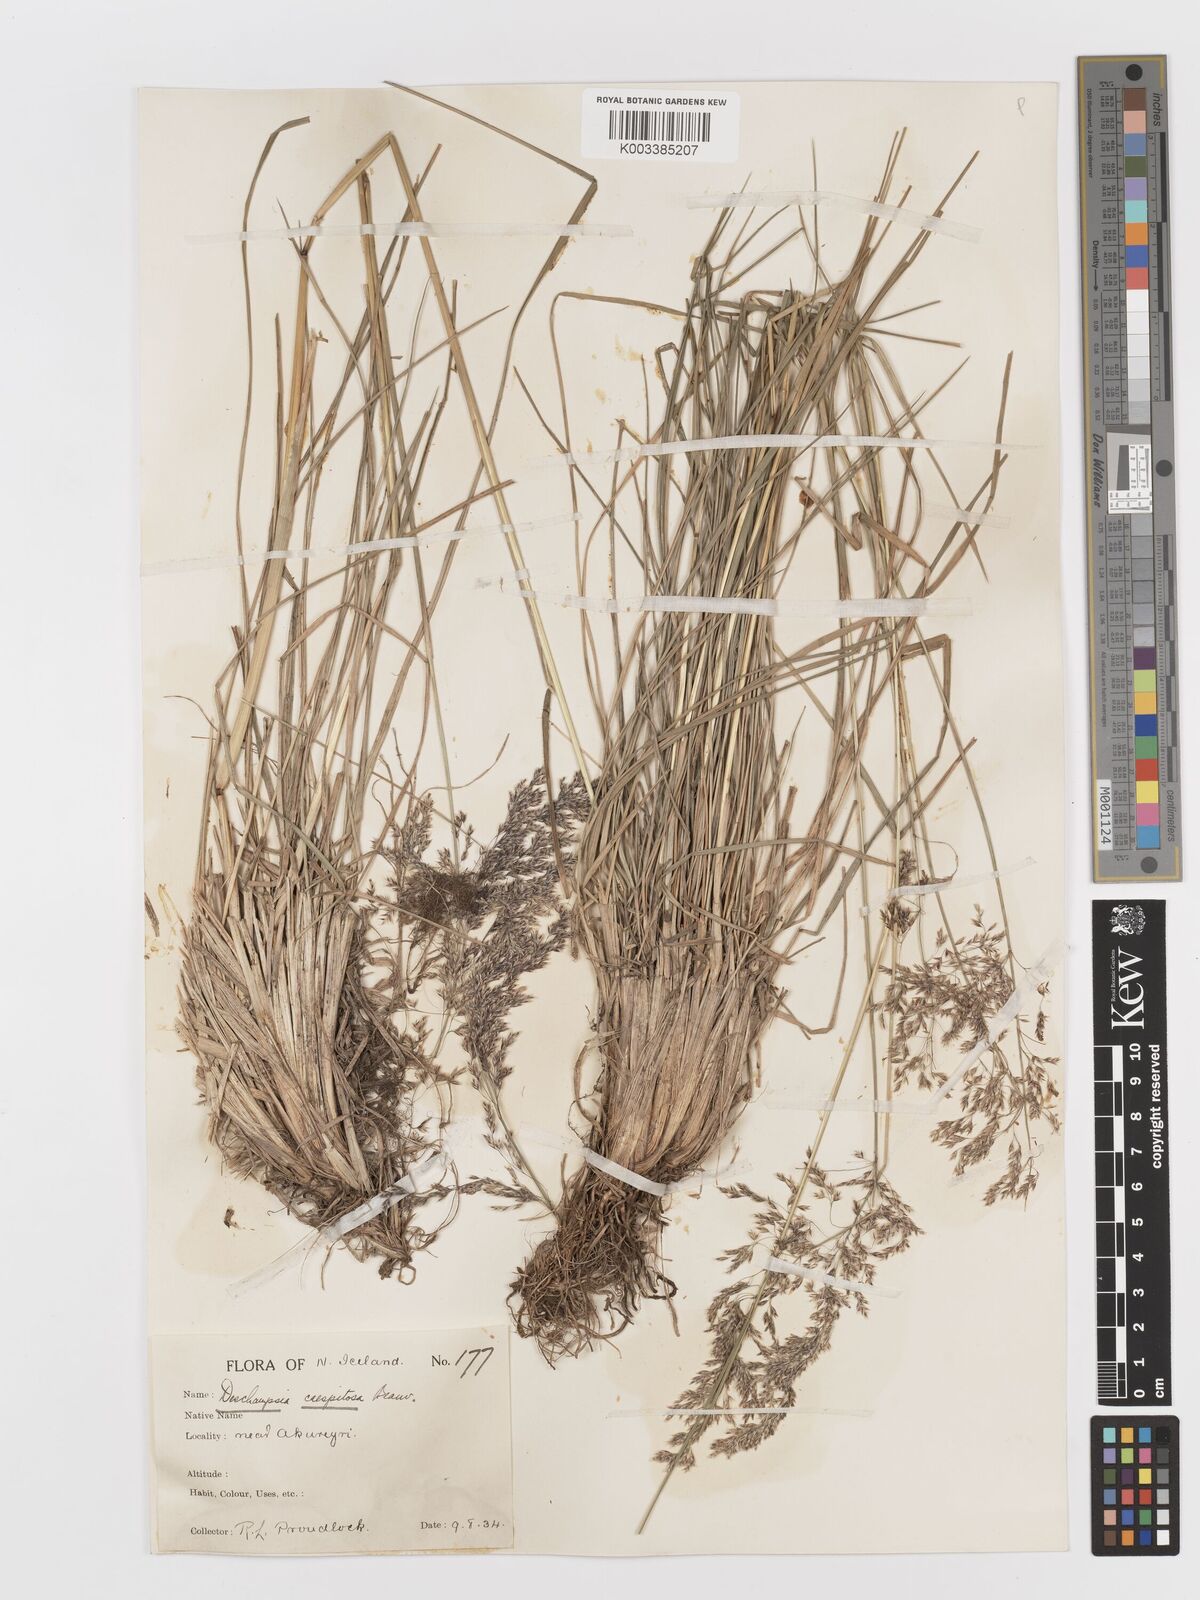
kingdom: Plantae
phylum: Tracheophyta
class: Liliopsida
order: Poales
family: Poaceae
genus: Deschampsia
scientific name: Deschampsia cespitosa
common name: Tufted hair-grass
